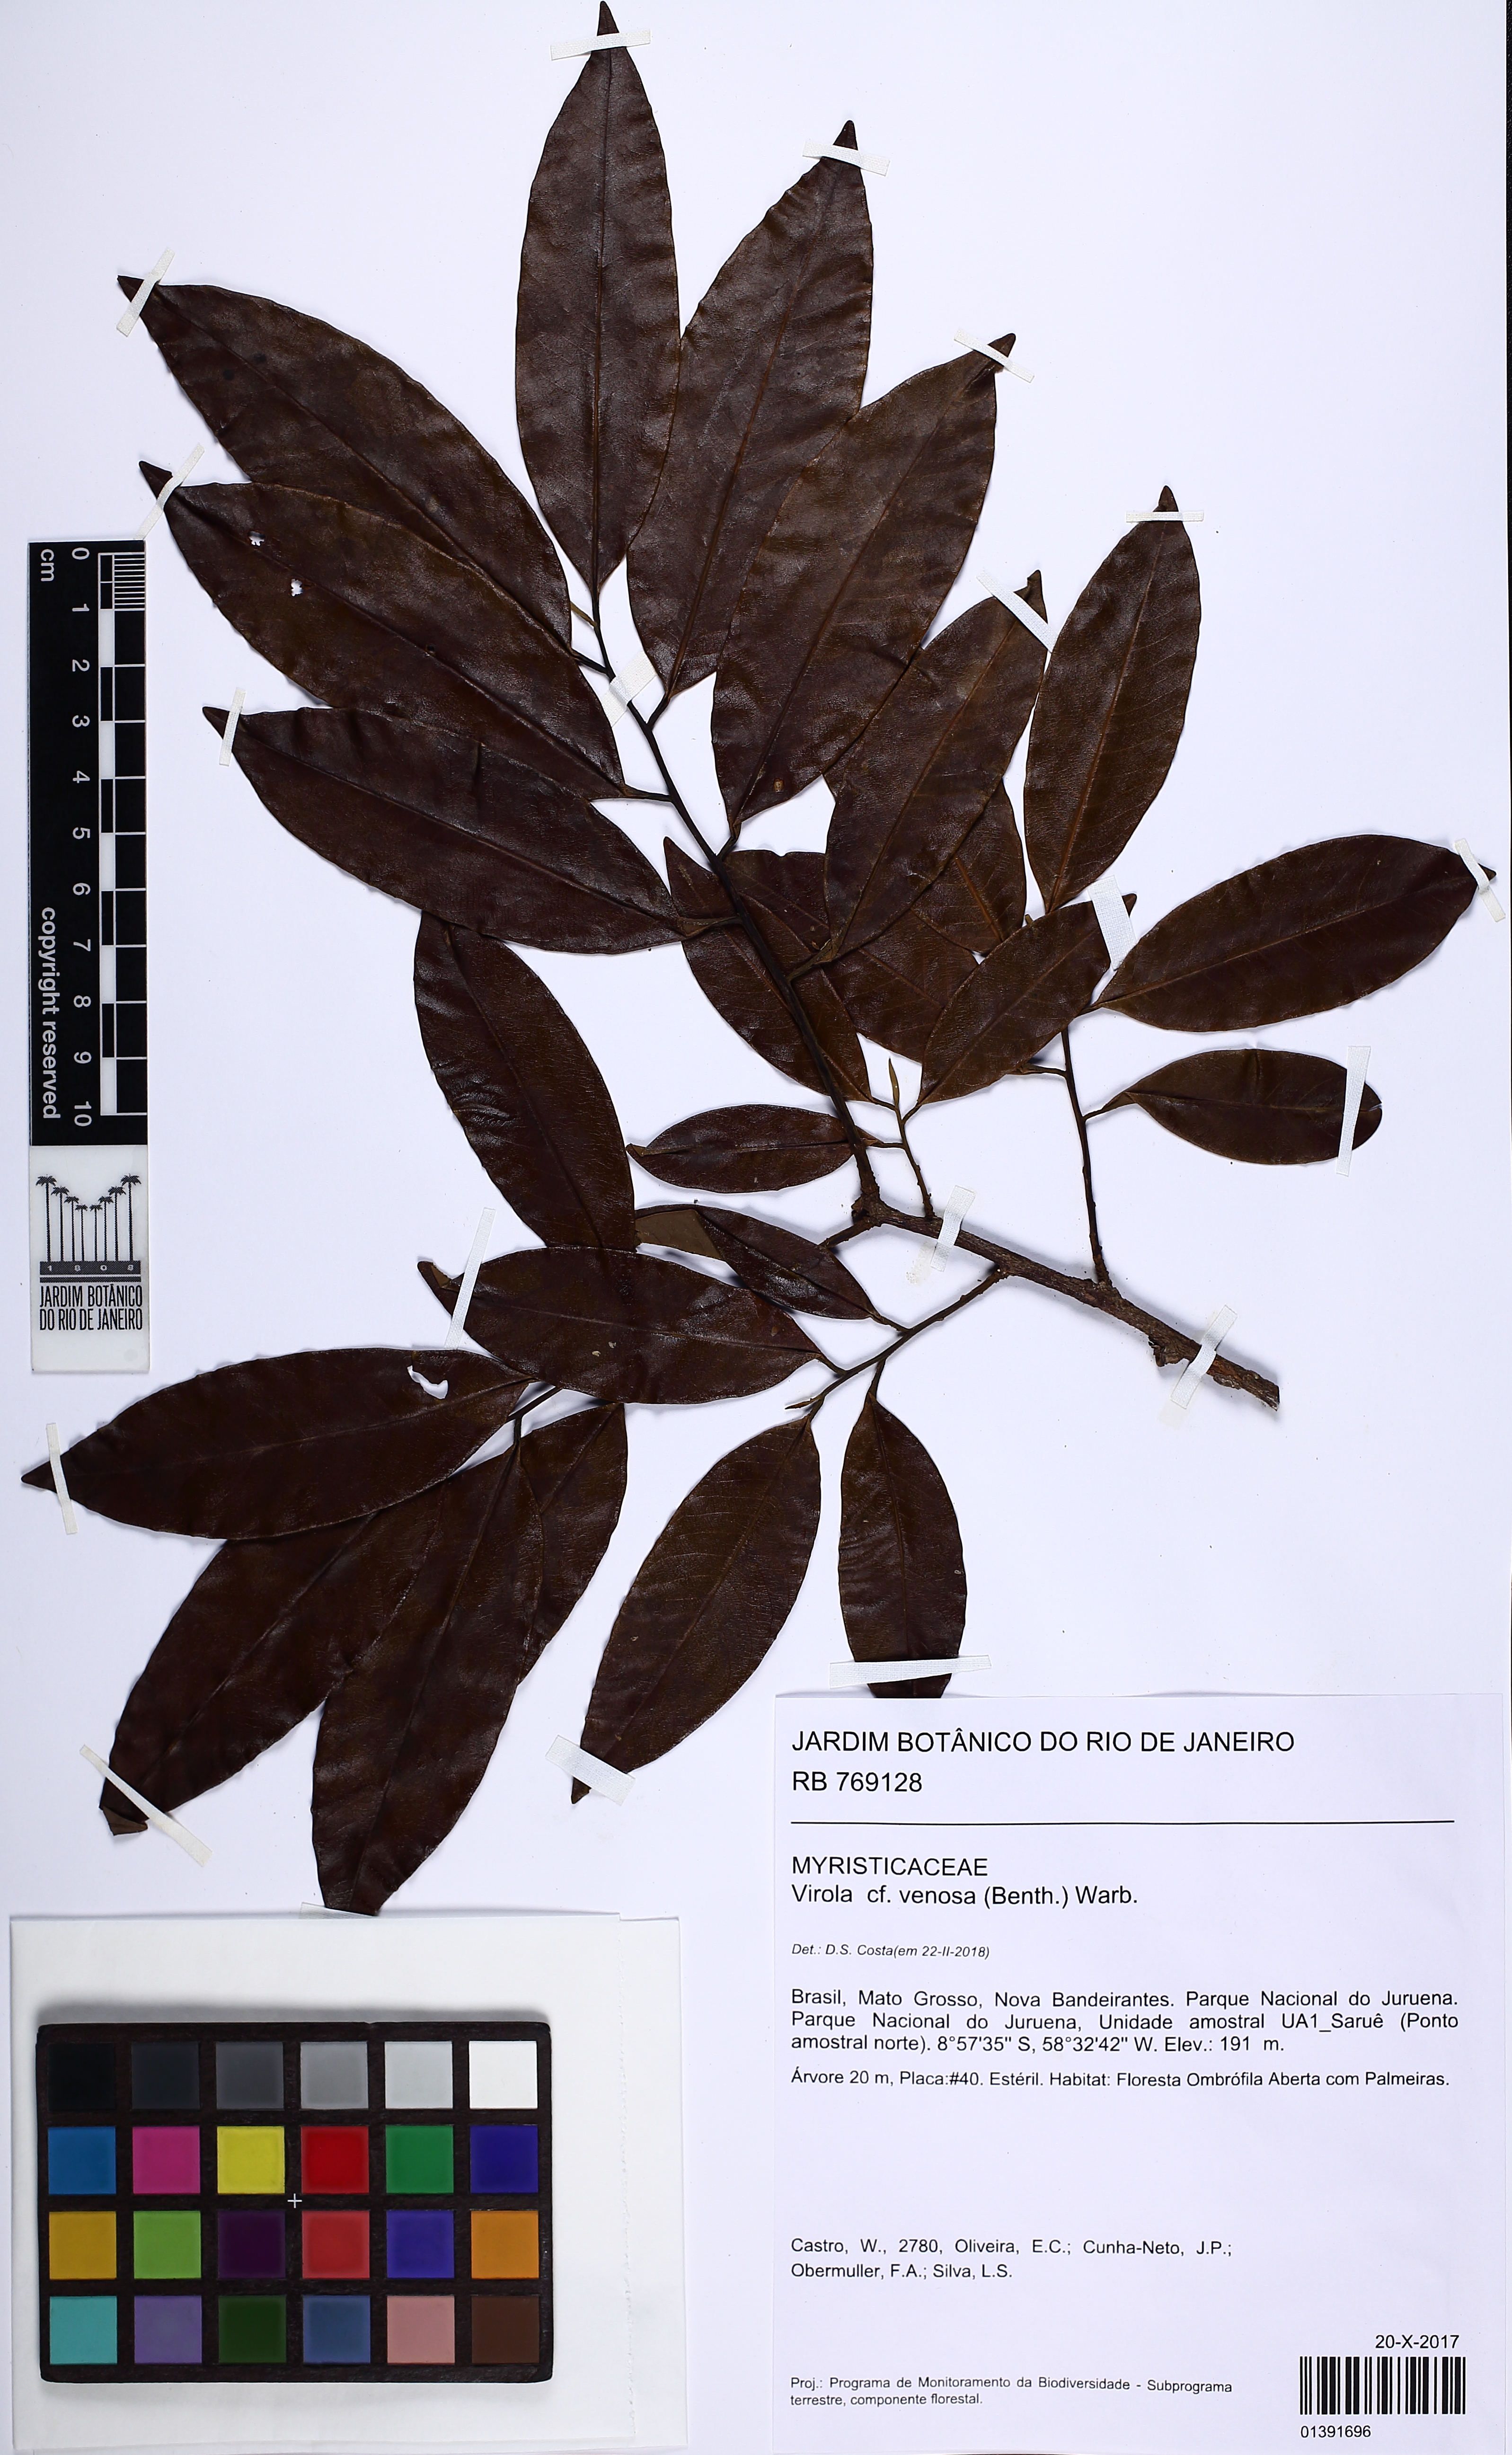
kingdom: Plantae
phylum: Tracheophyta
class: Magnoliopsida
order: Magnoliales
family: Myristicaceae
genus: Virola
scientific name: Virola venosa
